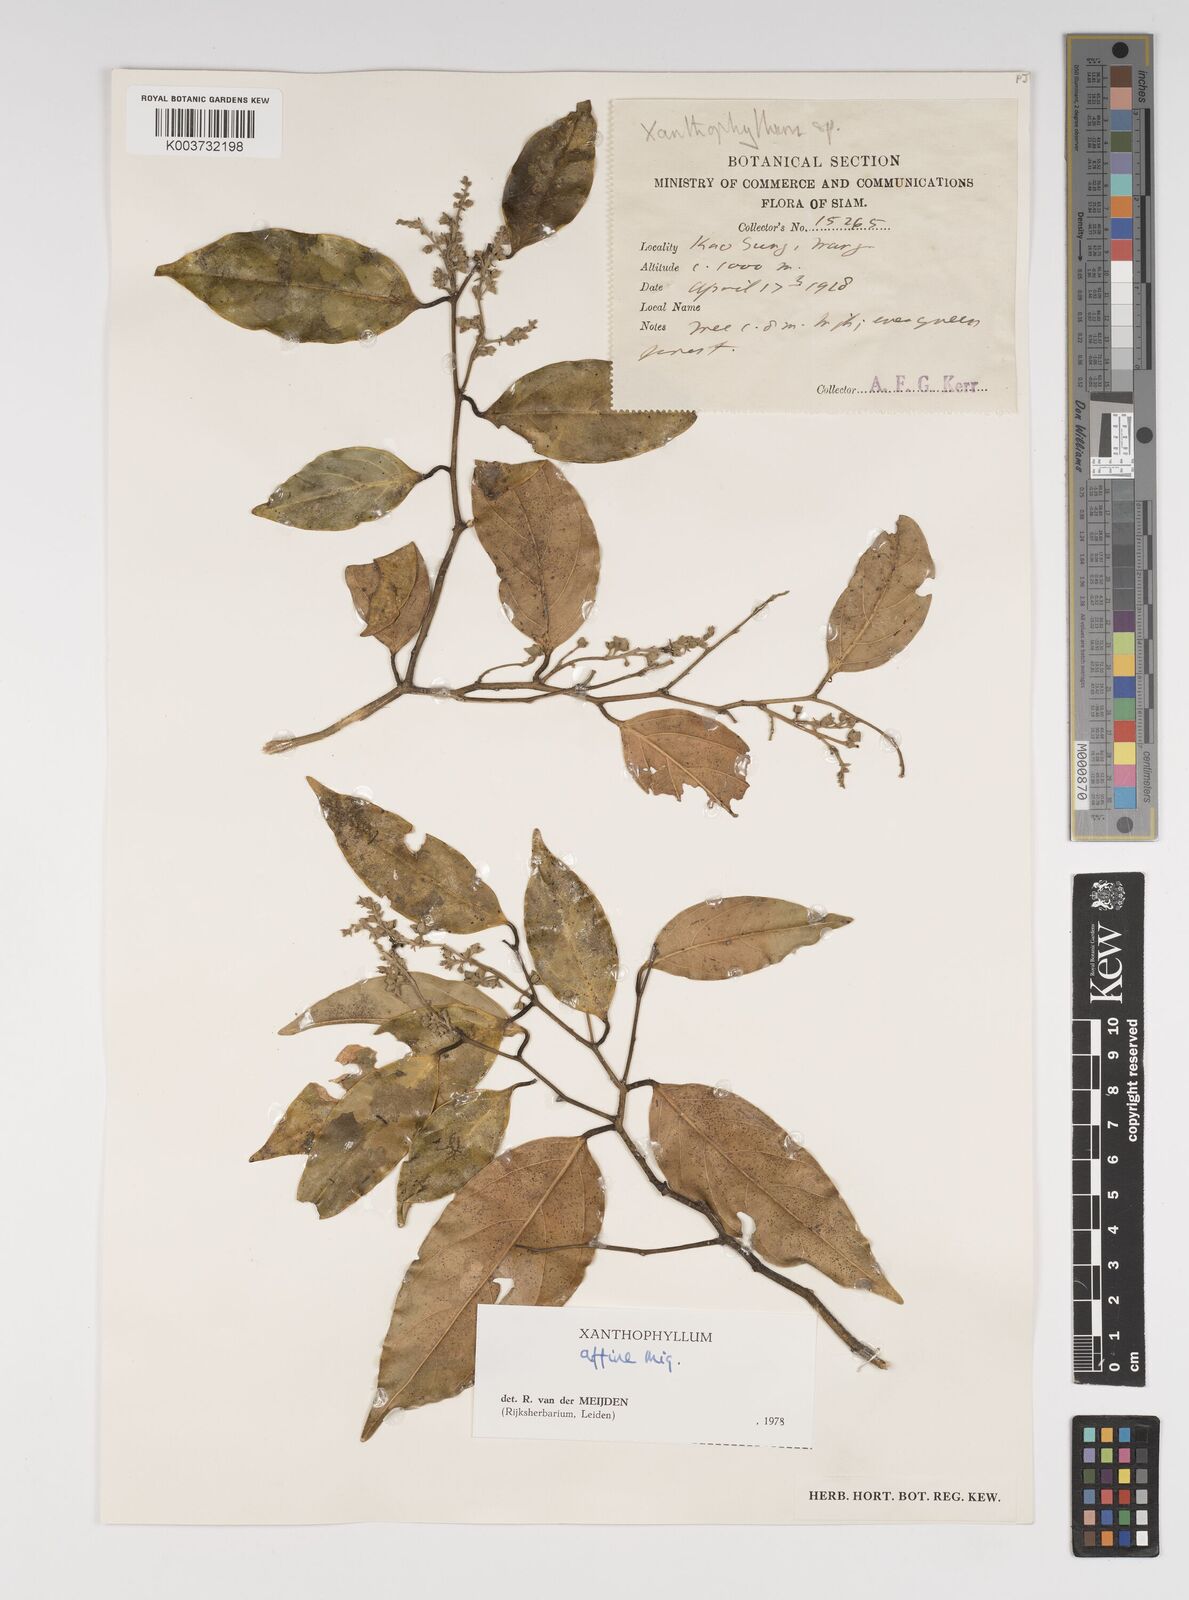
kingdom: Plantae
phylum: Tracheophyta
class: Magnoliopsida
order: Fabales
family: Polygalaceae
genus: Xanthophyllum
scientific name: Xanthophyllum flavescens
